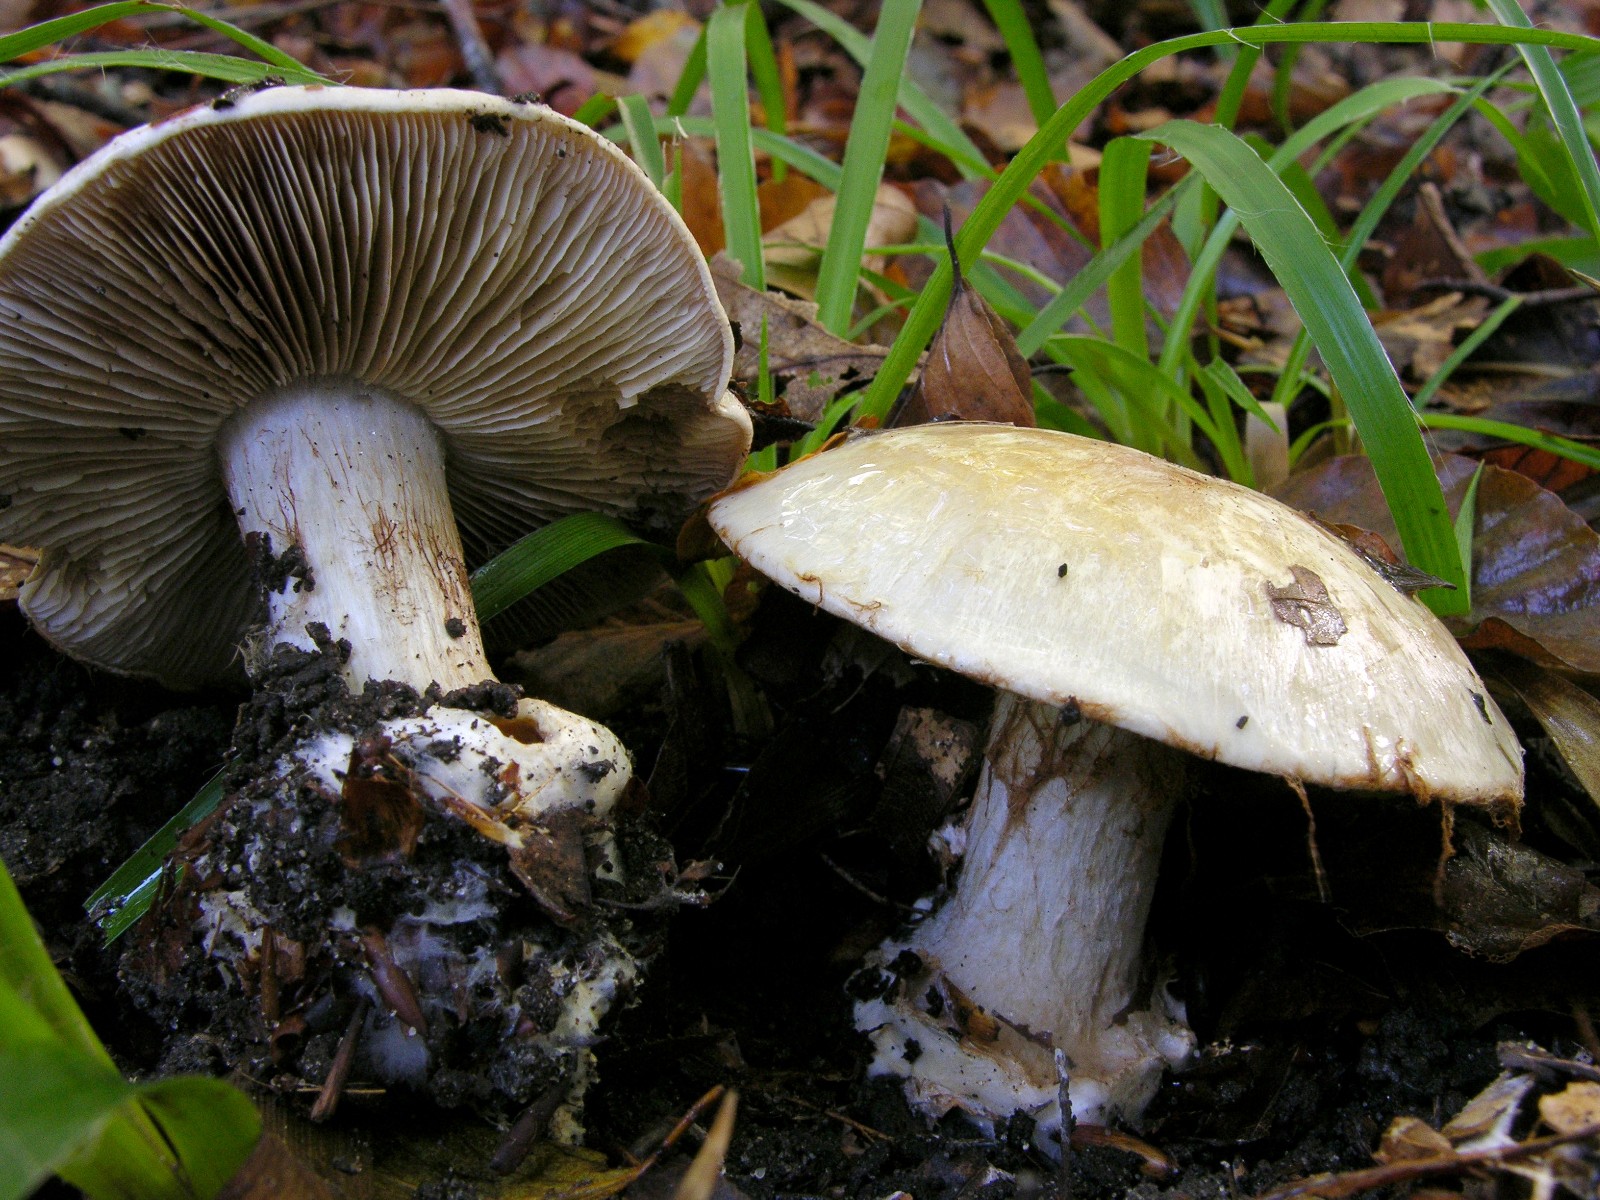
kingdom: Fungi
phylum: Basidiomycota
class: Agaricomycetes
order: Agaricales
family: Cortinariaceae
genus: Cortinarius
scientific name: Cortinarius foetens
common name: stribet slørhat
